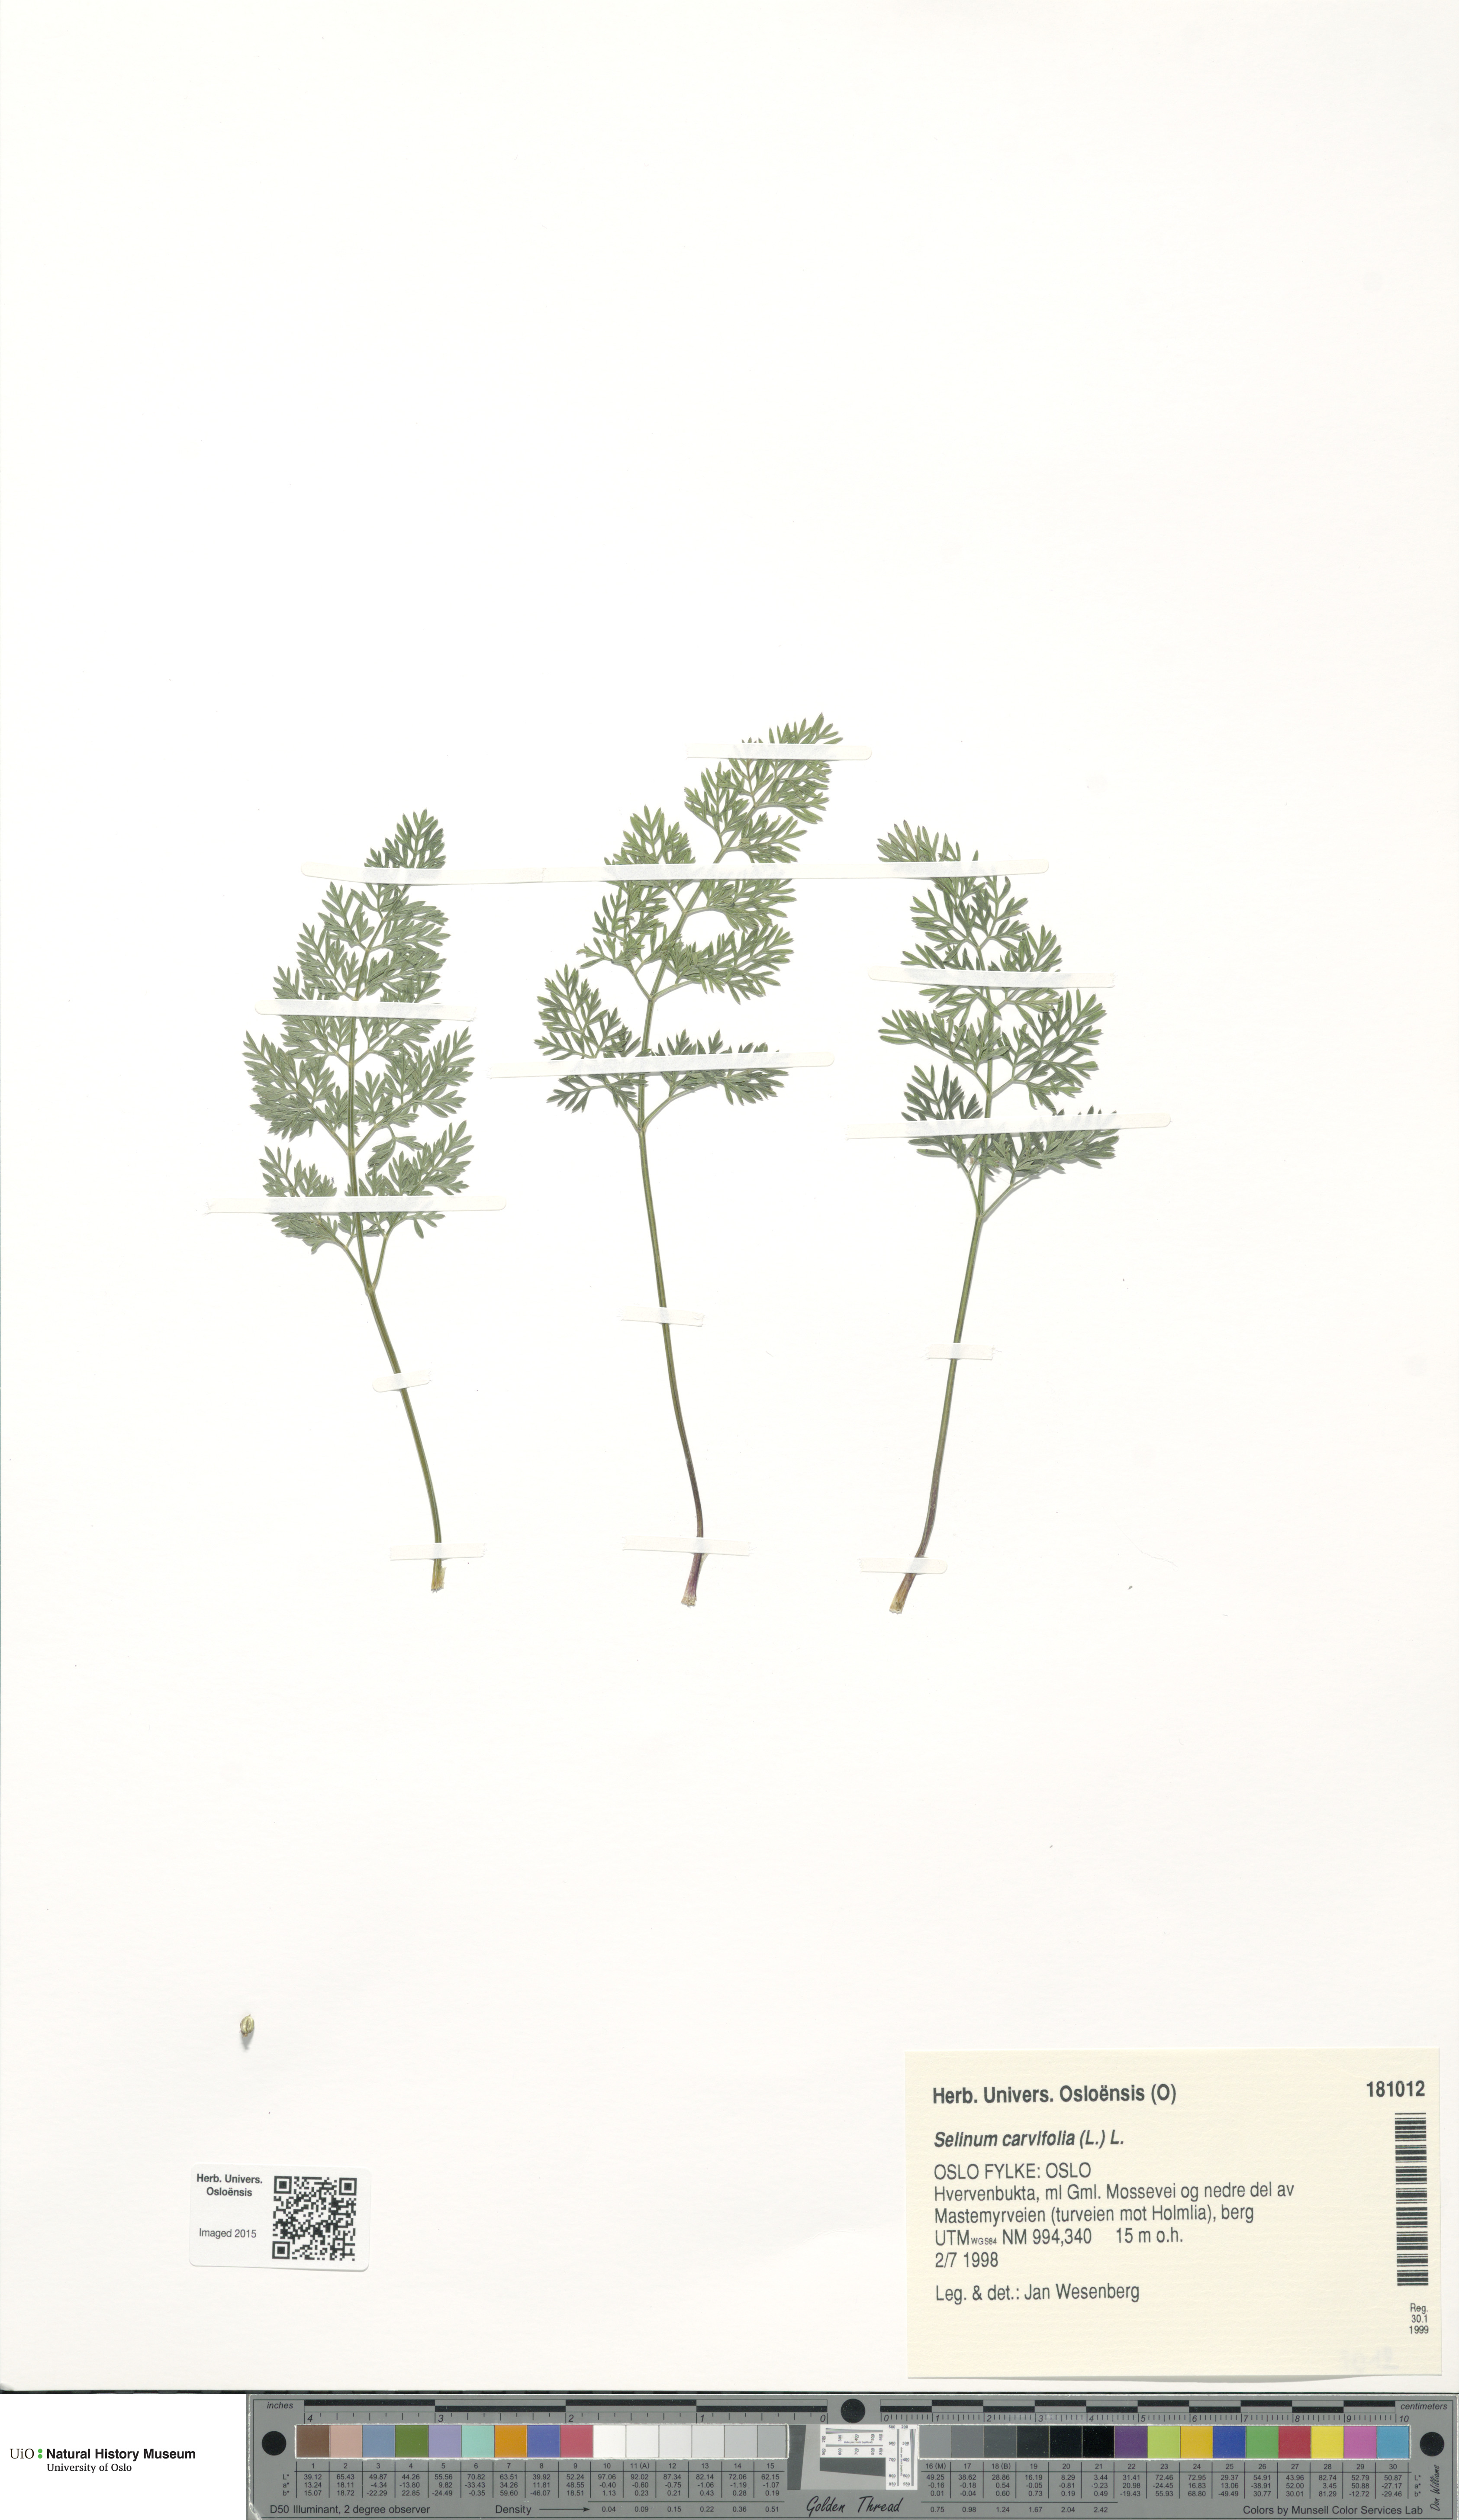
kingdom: Plantae
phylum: Tracheophyta
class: Magnoliopsida
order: Apiales
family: Apiaceae
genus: Selinum
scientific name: Selinum carvifolia
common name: Cambridge milk-parsley
